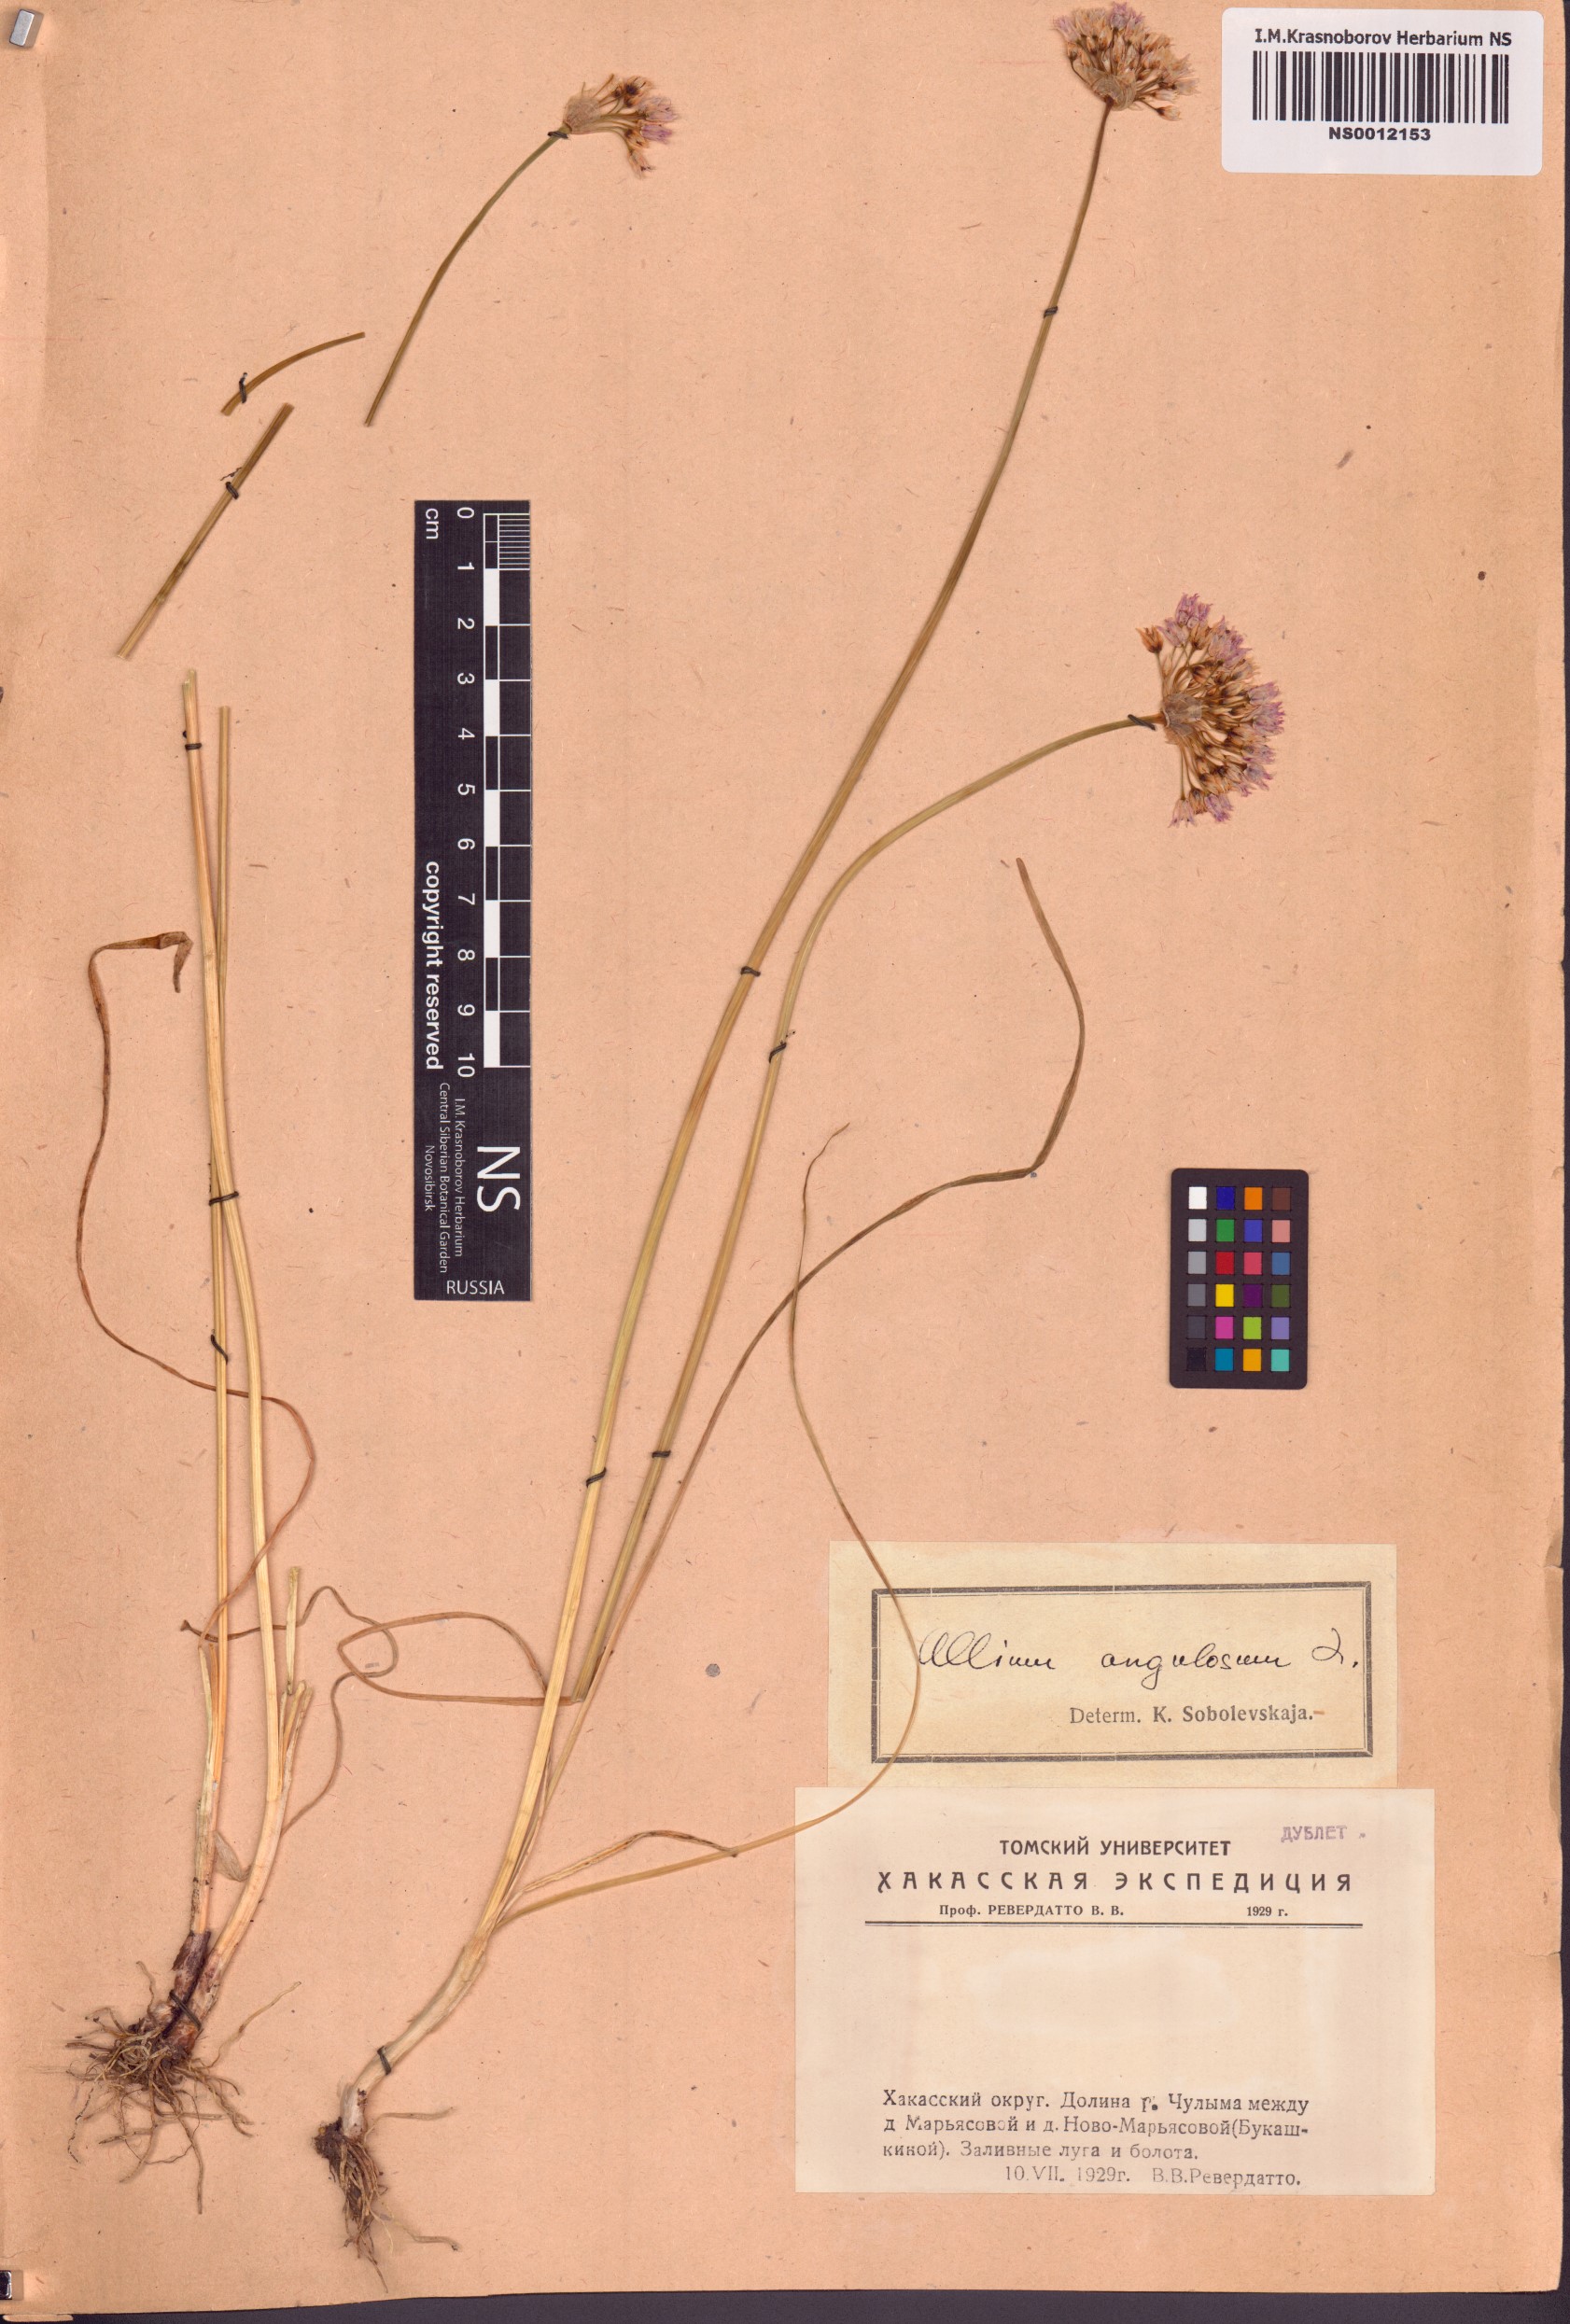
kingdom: Plantae
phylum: Tracheophyta
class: Liliopsida
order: Asparagales
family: Amaryllidaceae
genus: Allium
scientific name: Allium angulosum
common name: Mouse garlic
